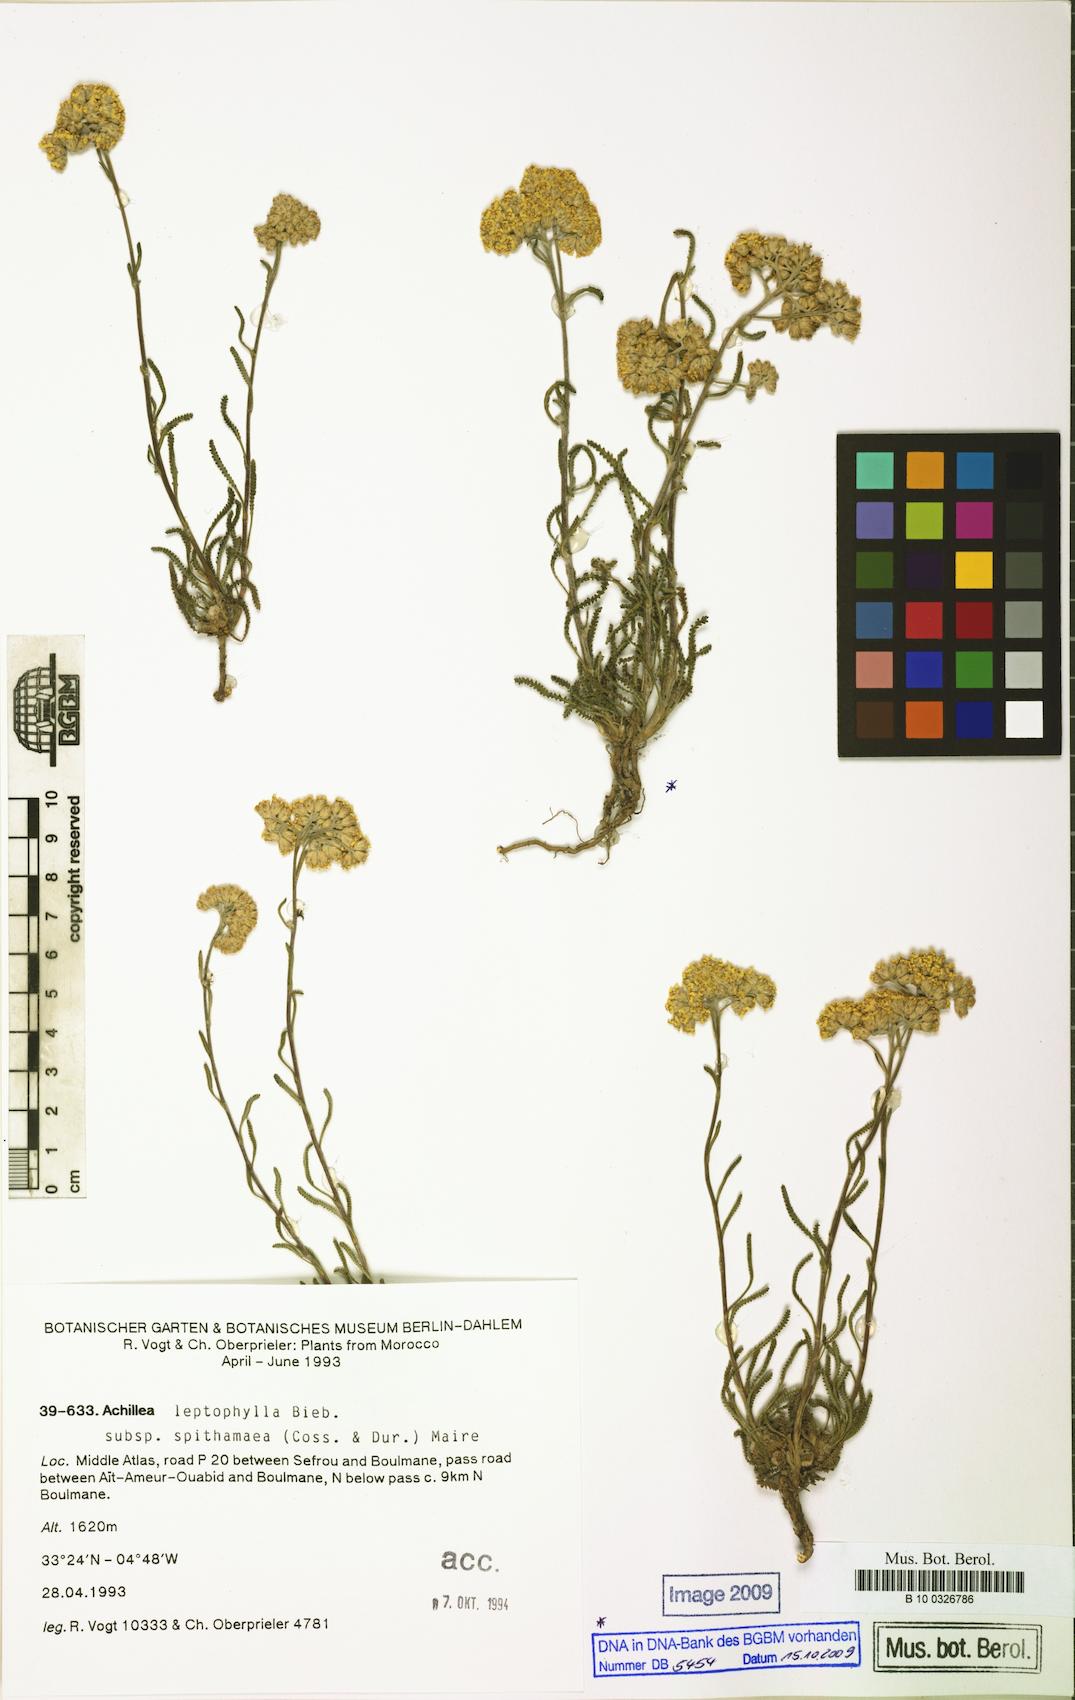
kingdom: Plantae
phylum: Tracheophyta
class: Magnoliopsida
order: Asterales
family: Asteraceae
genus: Achillea
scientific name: Achillea leptophylla
